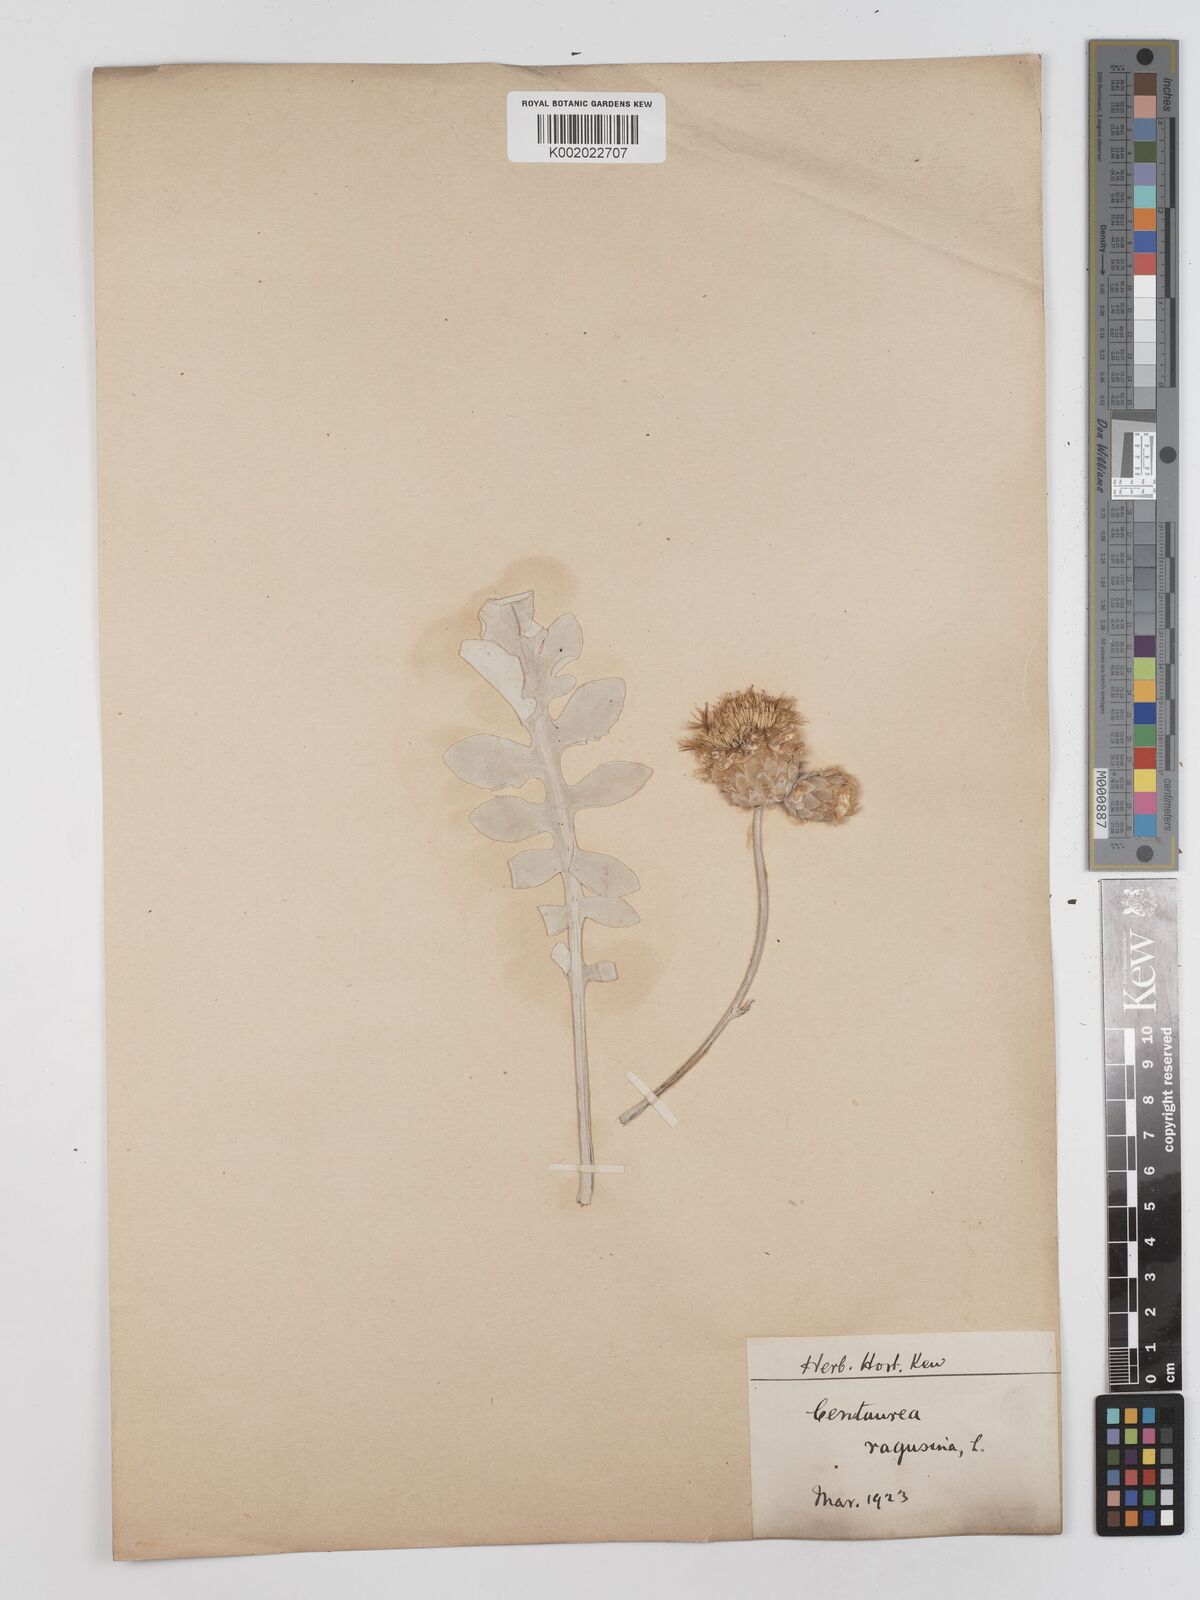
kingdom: Plantae
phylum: Tracheophyta
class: Magnoliopsida
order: Asterales
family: Asteraceae
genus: Centaurea
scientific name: Centaurea ragusina
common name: Dusty-miller
